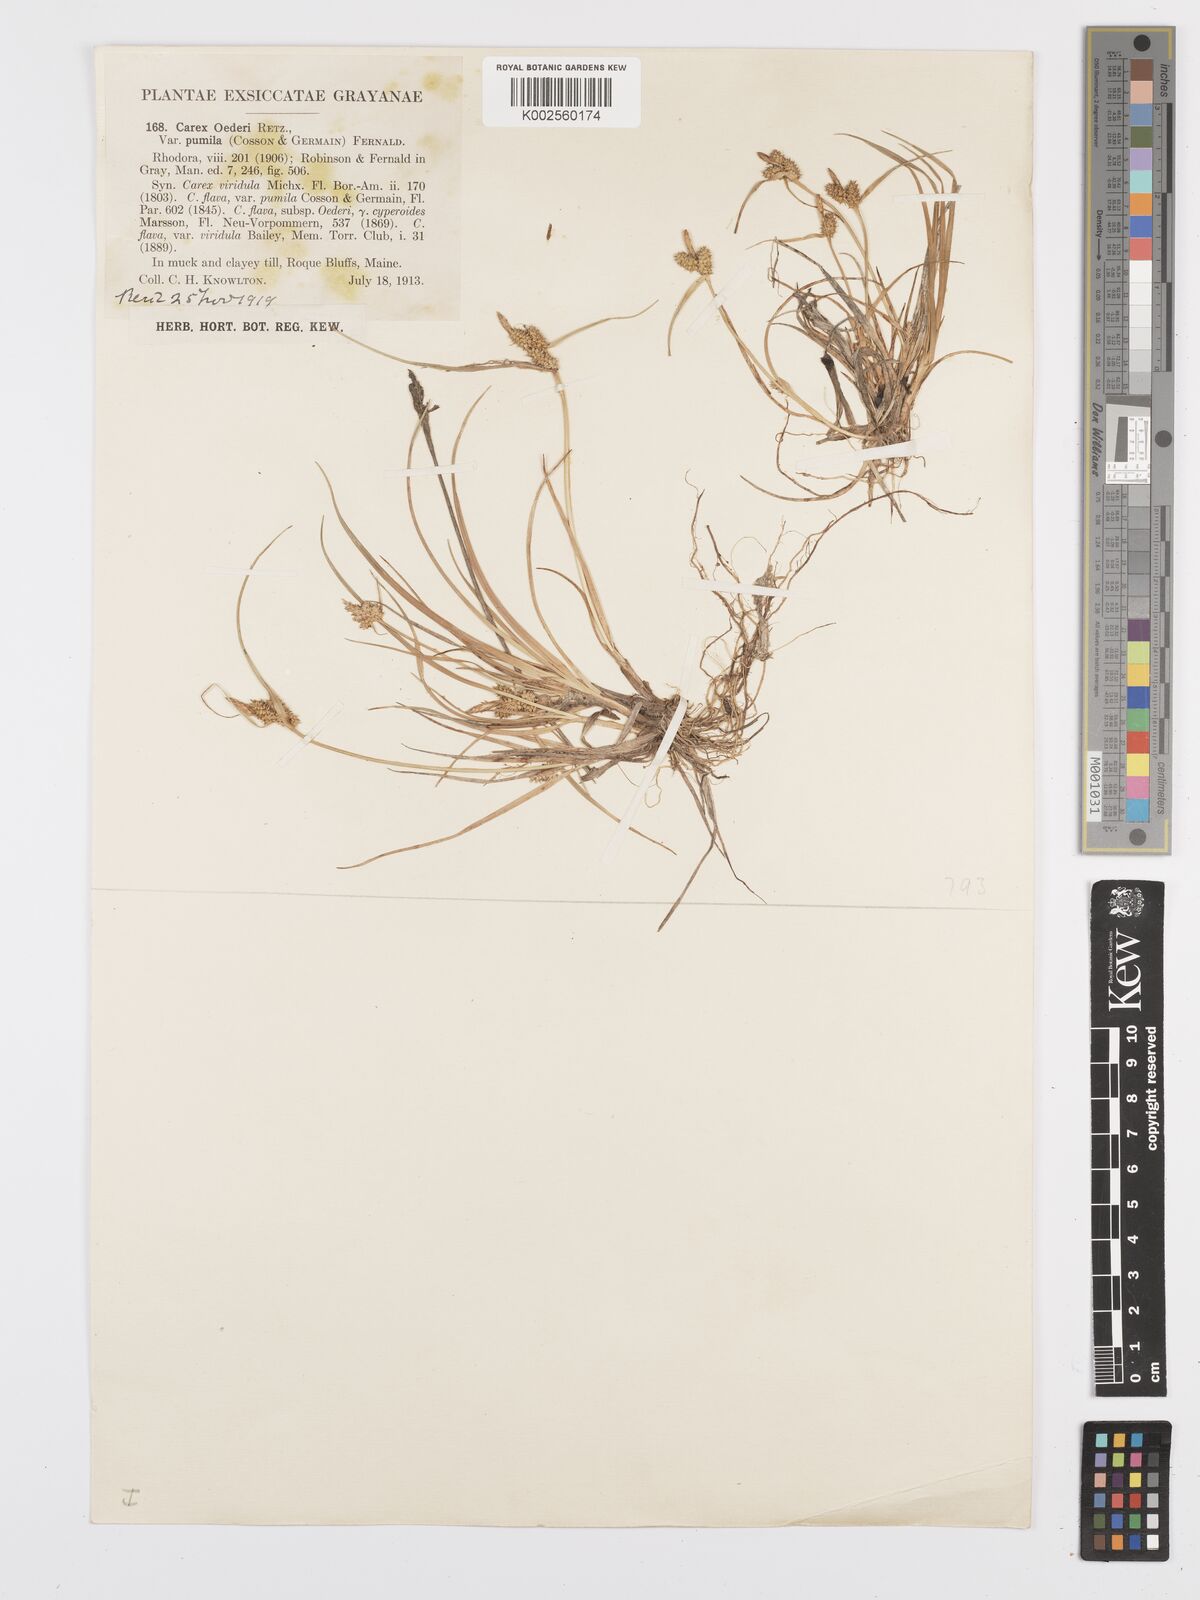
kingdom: Plantae
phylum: Tracheophyta
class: Liliopsida
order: Poales
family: Cyperaceae
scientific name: Cyperaceae
